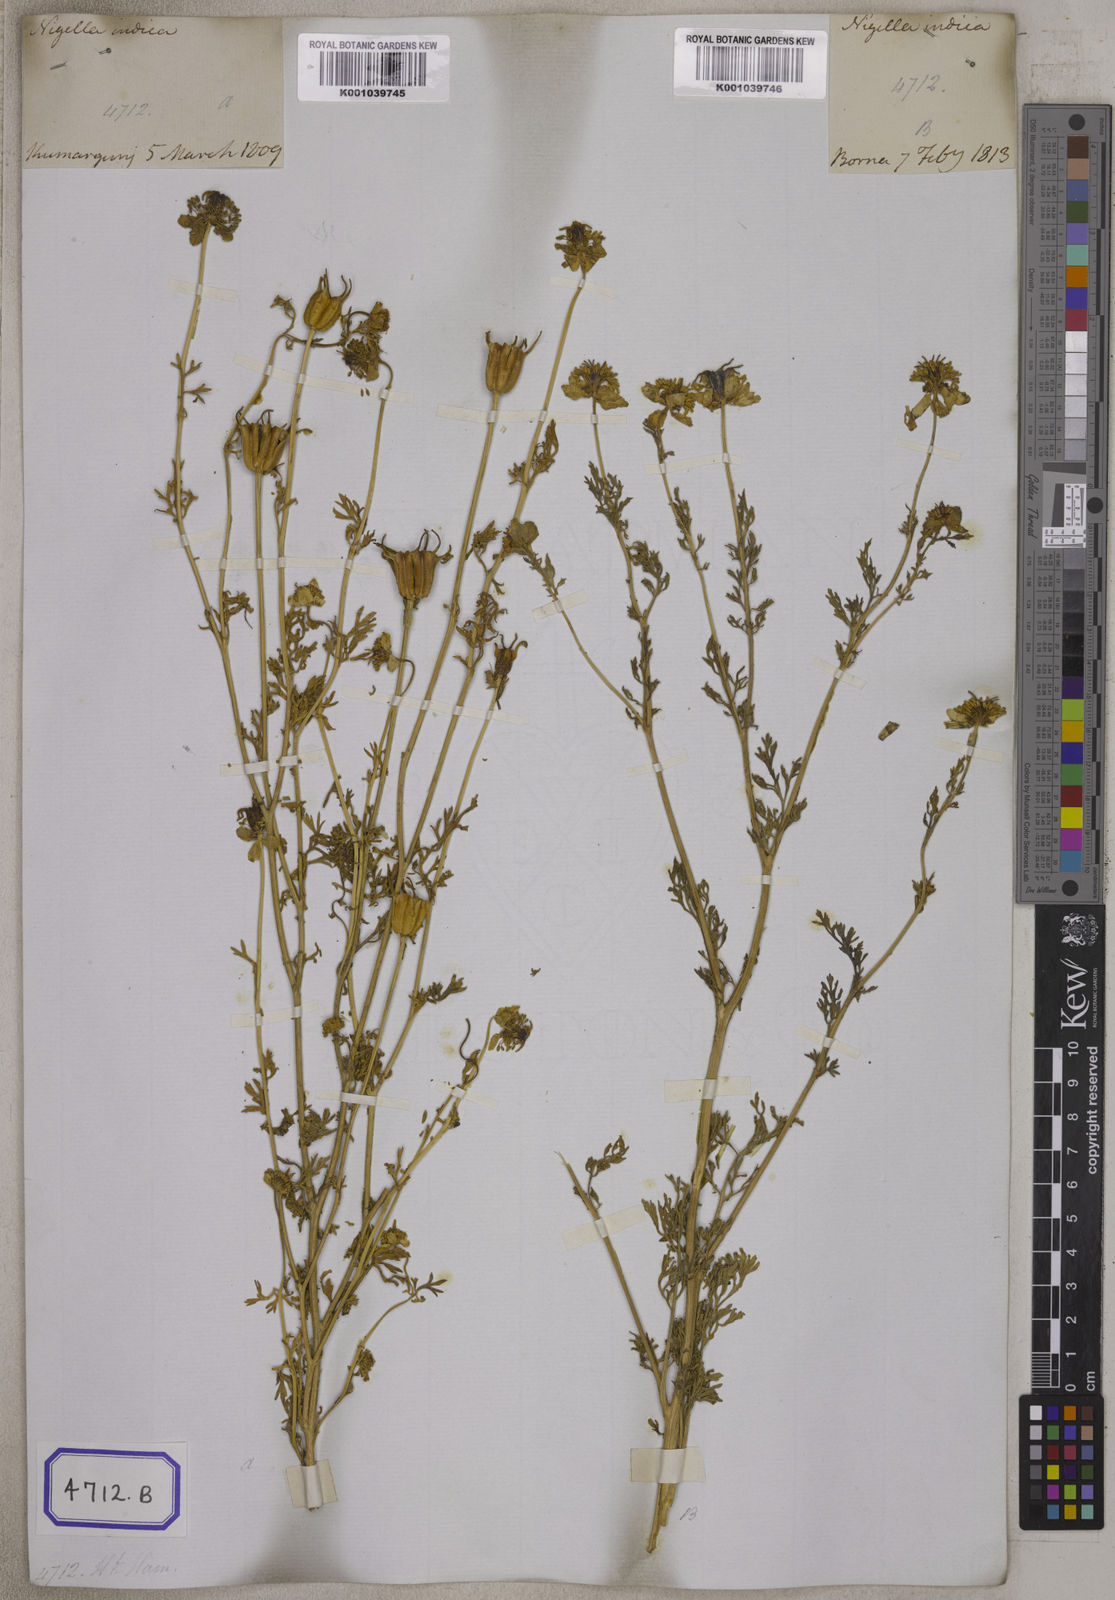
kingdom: Plantae
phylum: Tracheophyta
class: Magnoliopsida
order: Ranunculales
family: Ranunculaceae
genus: Nigella
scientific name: Nigella sativa
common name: Black-cumin
